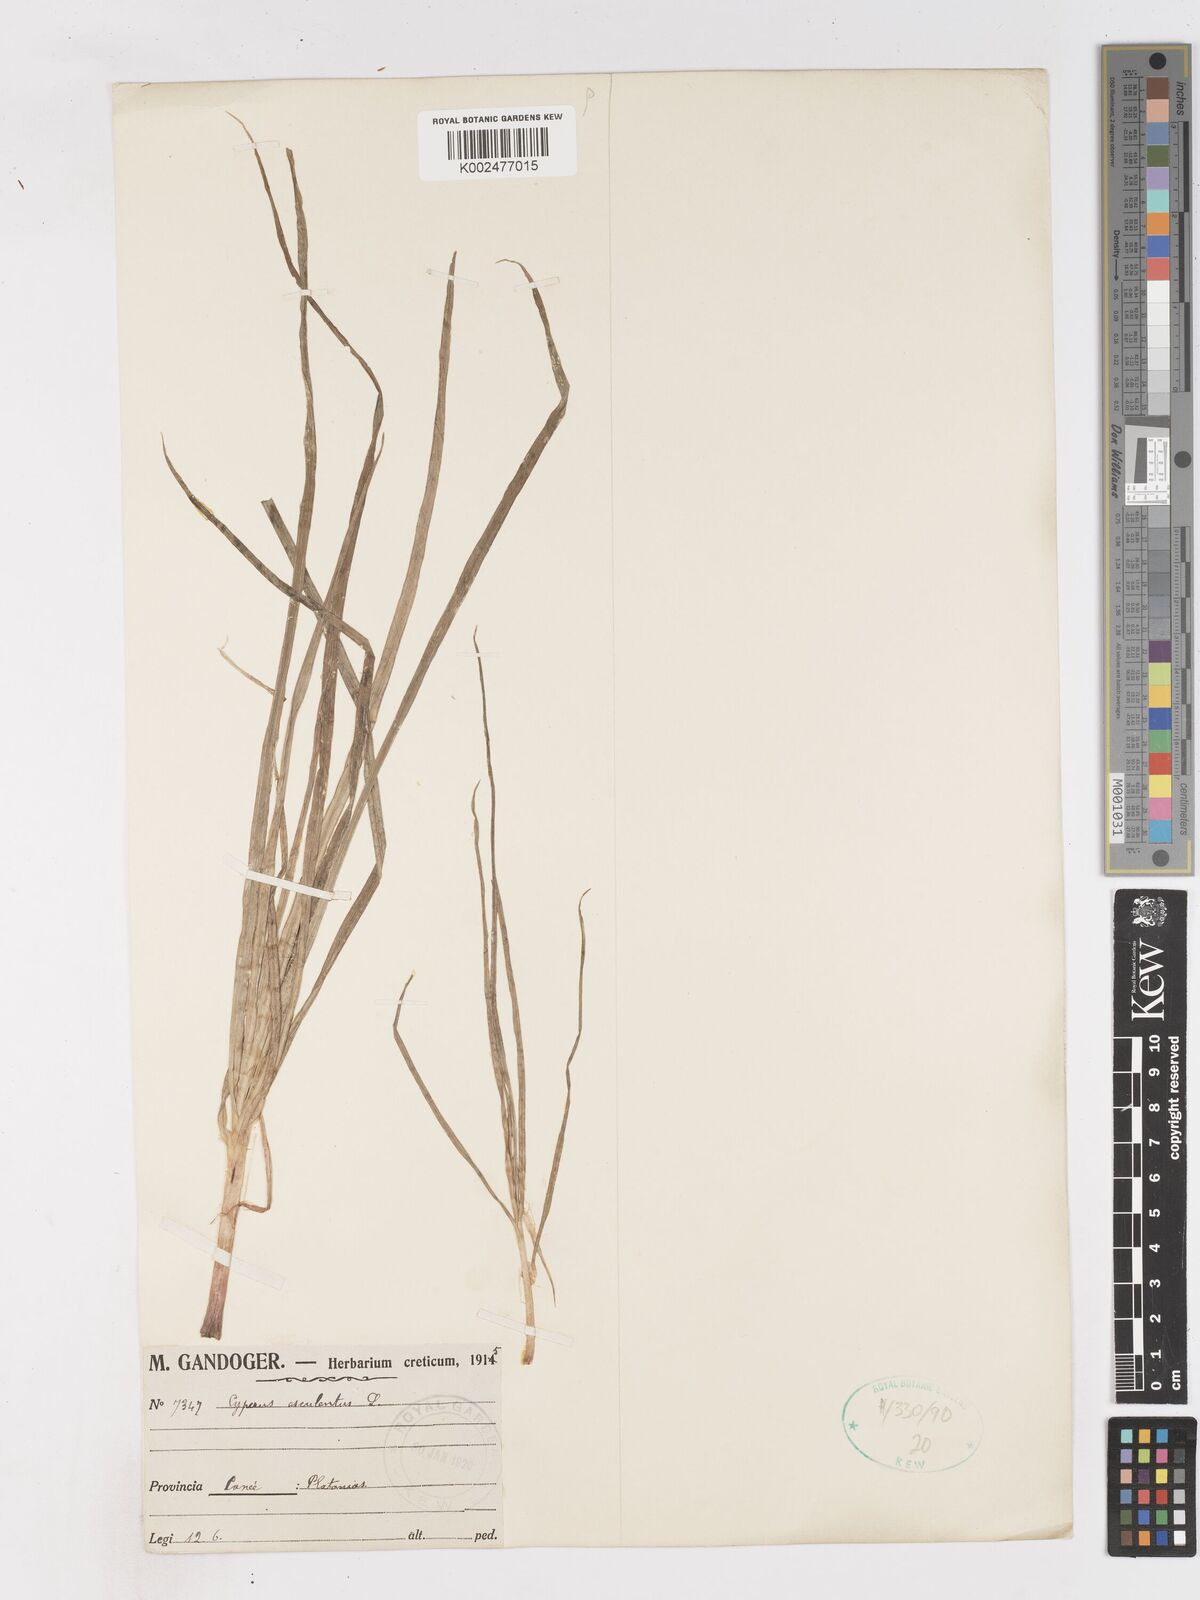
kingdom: Plantae
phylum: Tracheophyta
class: Liliopsida
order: Poales
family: Cyperaceae
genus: Cyperus
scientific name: Cyperus esculentus
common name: Yellow nutsedge
